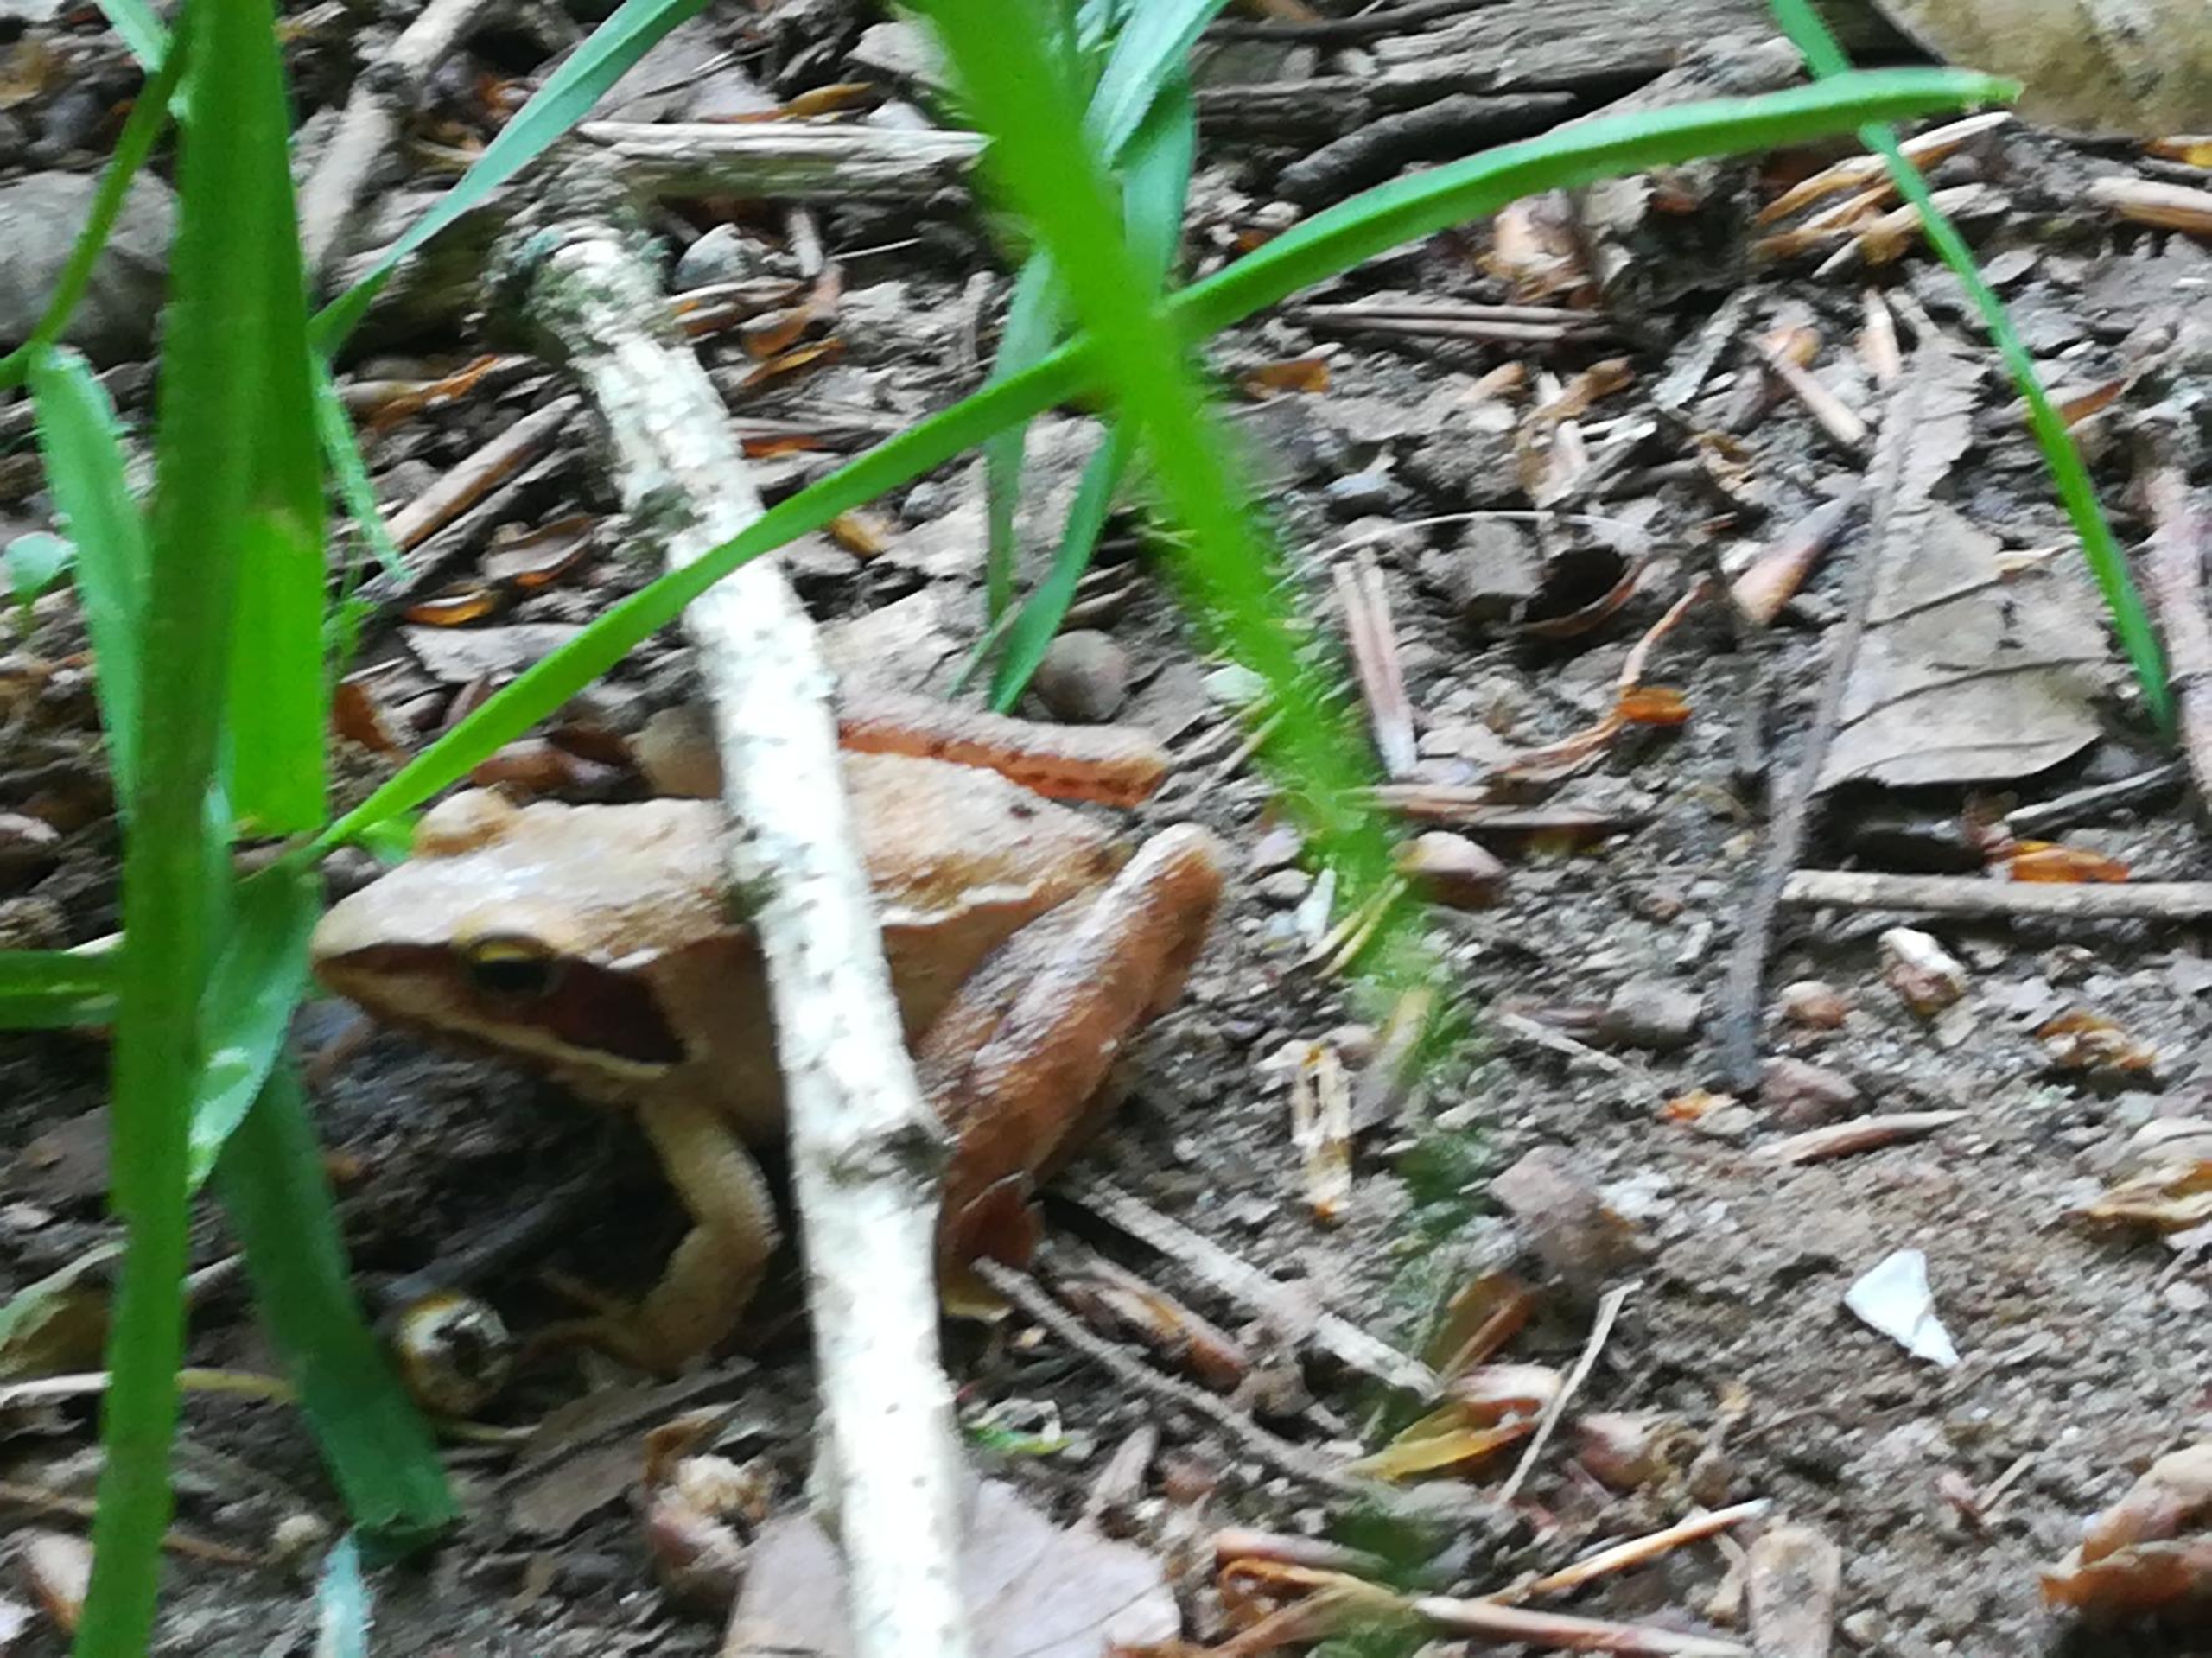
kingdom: Animalia
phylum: Chordata
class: Amphibia
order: Anura
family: Ranidae
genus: Rana
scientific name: Rana dalmatina
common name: Springfrø
